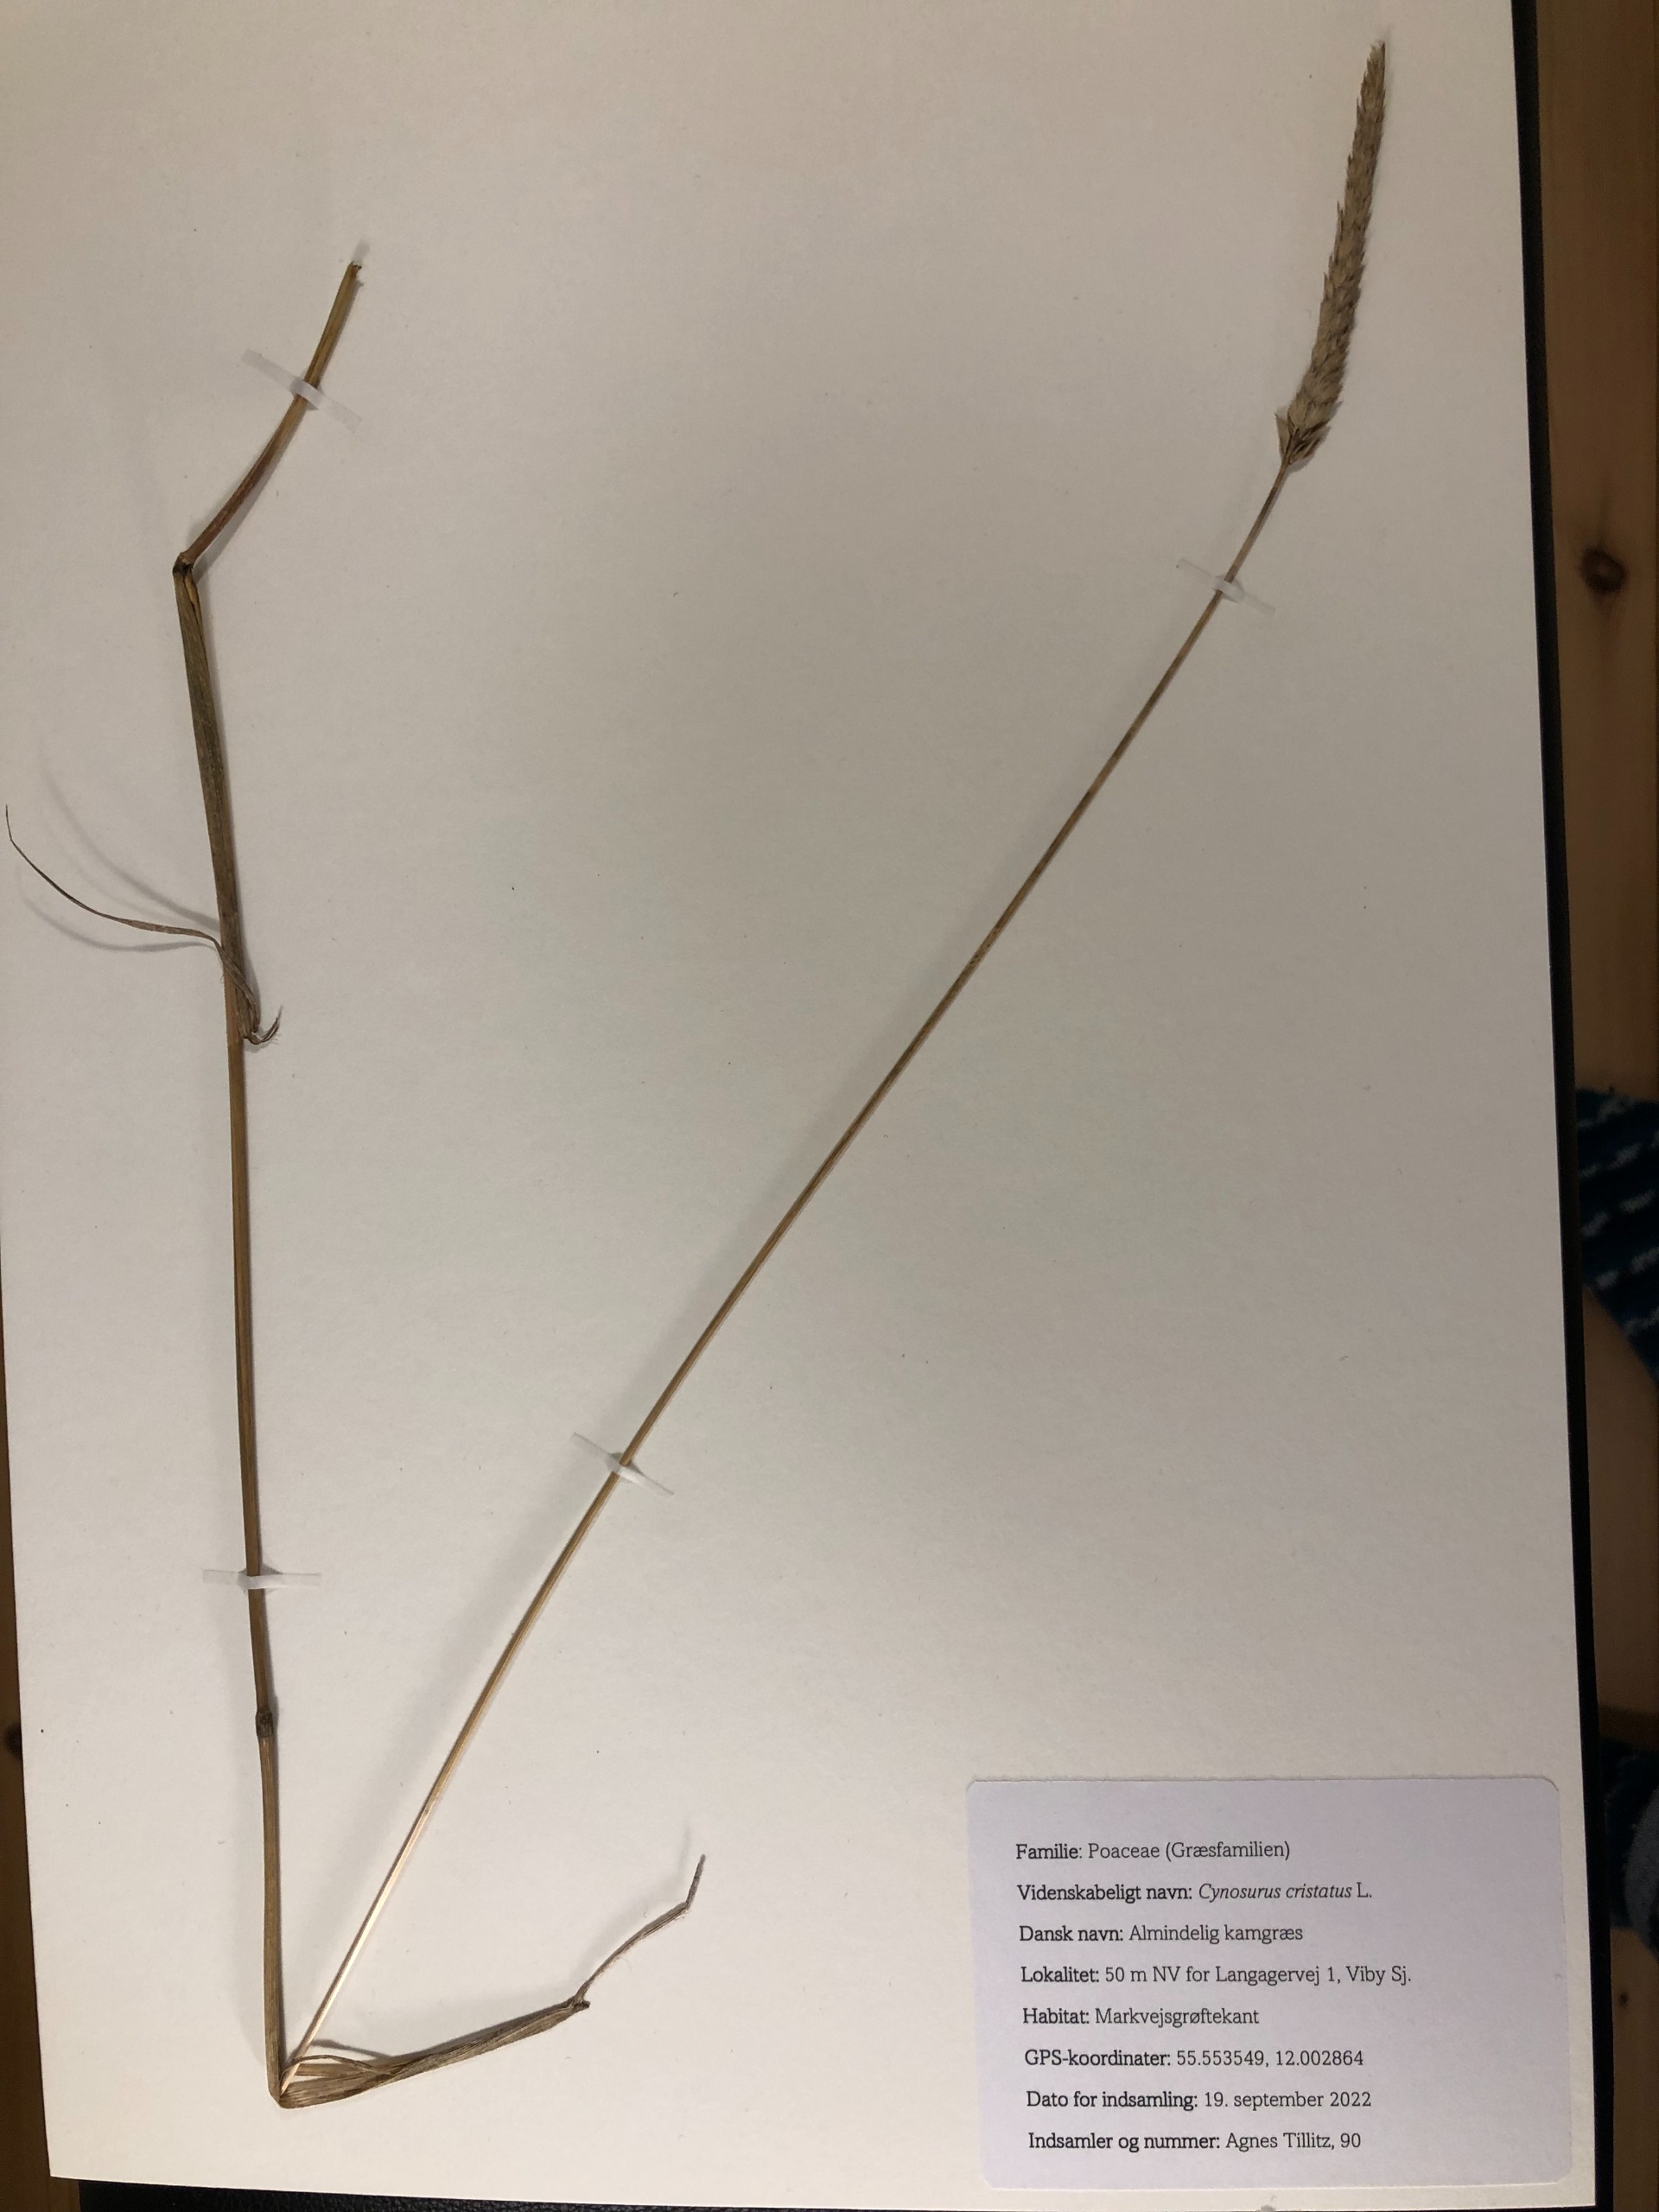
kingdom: Plantae
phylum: Tracheophyta
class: Liliopsida
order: Poales
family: Poaceae
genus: Cynosurus
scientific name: Cynosurus cristatus
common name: Kamgræs
